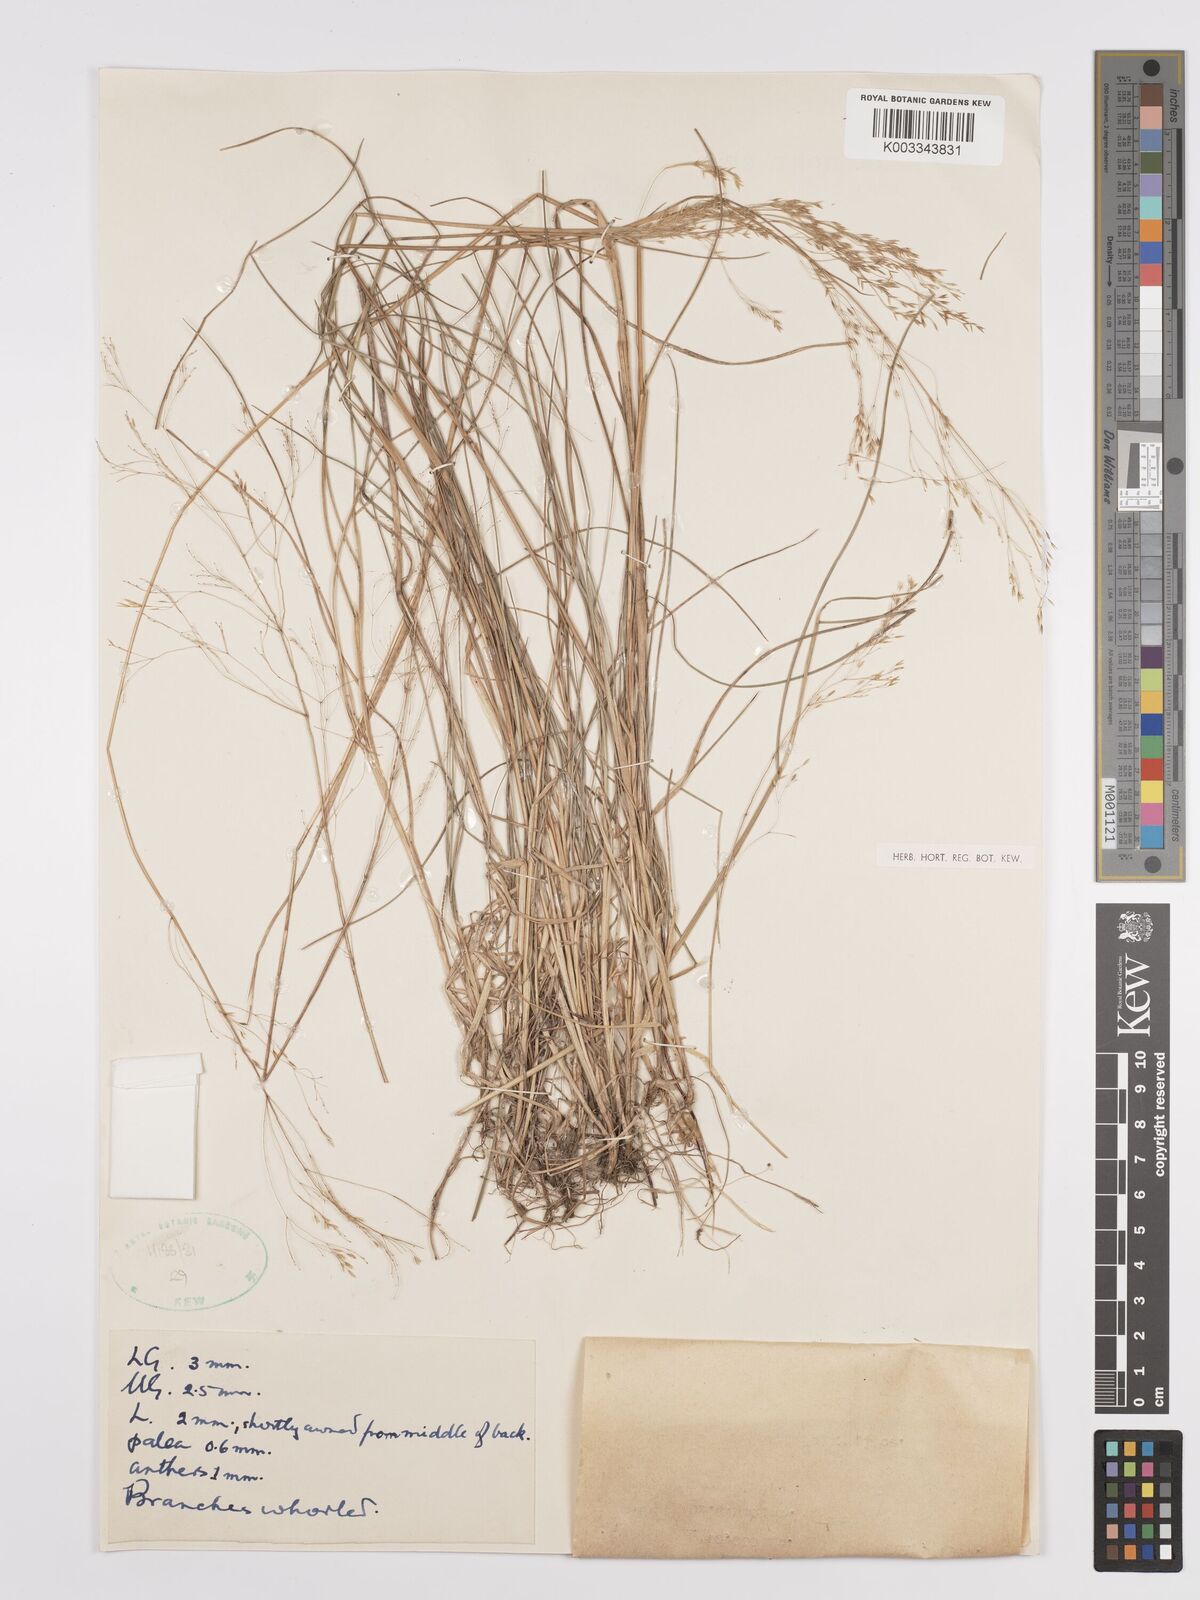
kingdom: Plantae
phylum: Tracheophyta
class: Liliopsida
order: Poales
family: Poaceae
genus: Agrostis
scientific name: Agrostis infirma
